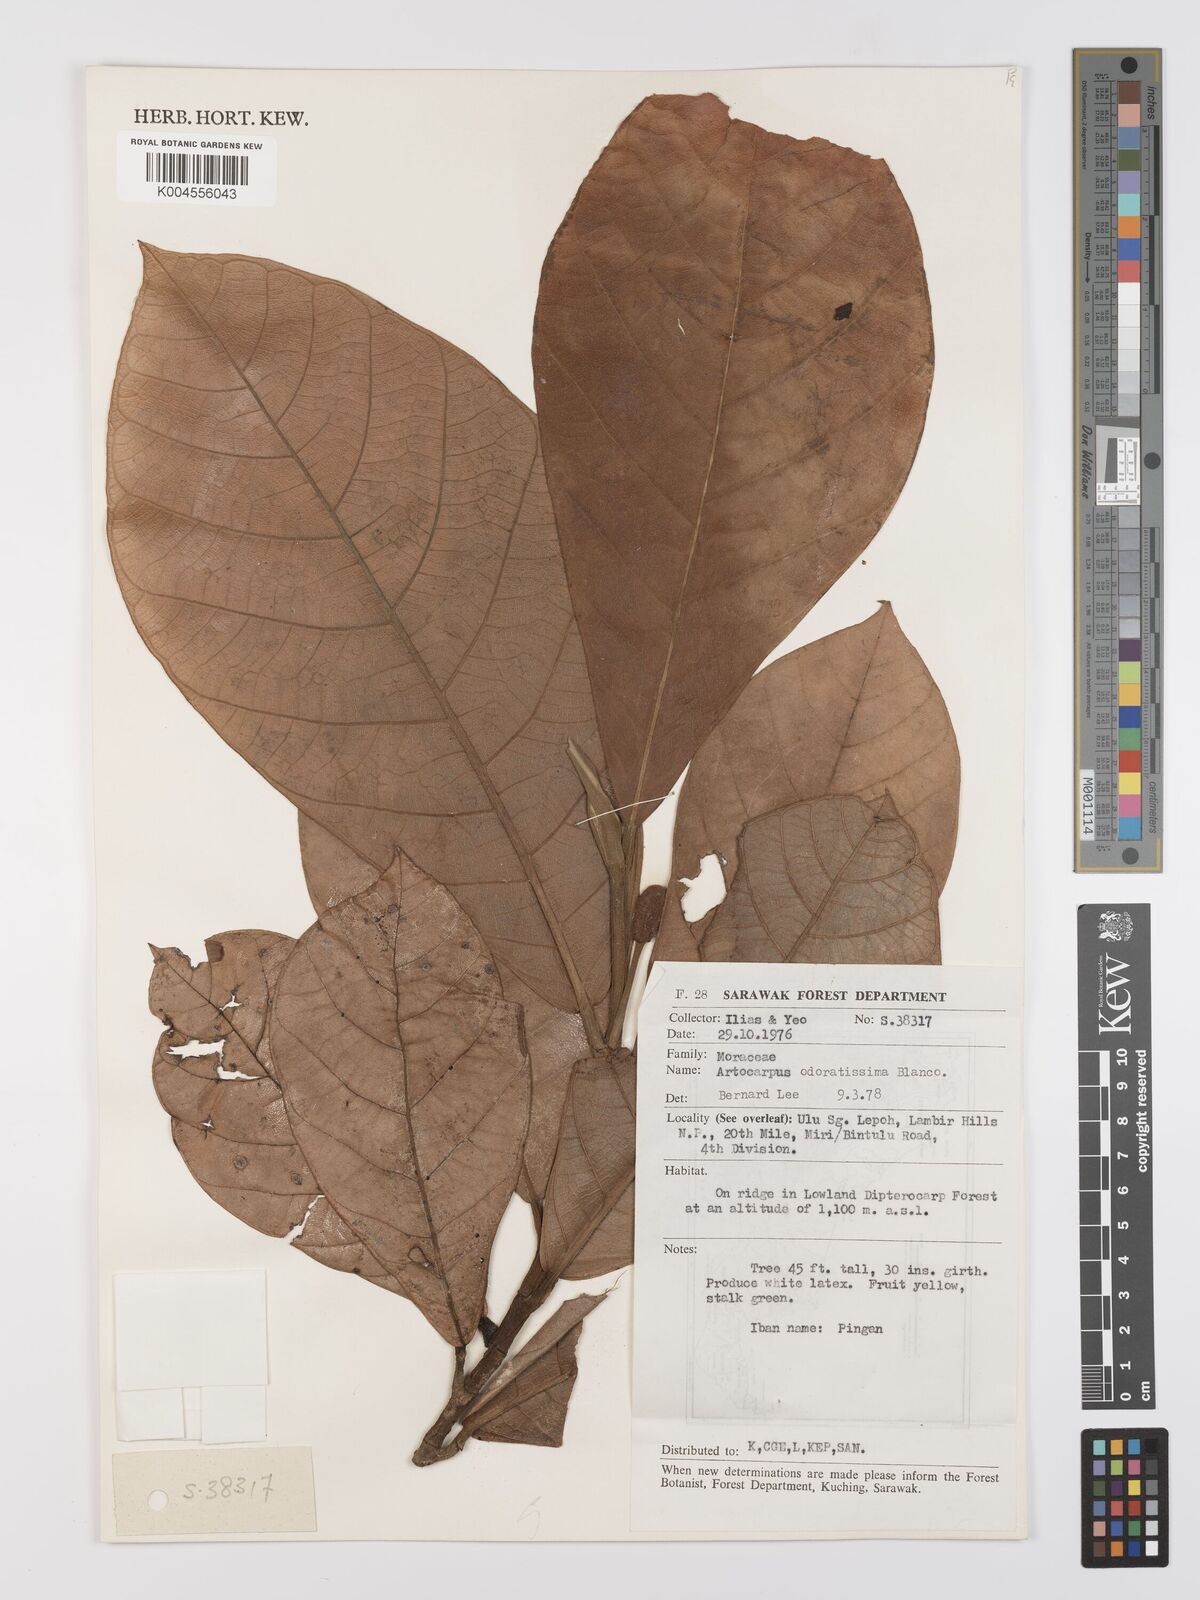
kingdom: Plantae
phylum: Tracheophyta
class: Magnoliopsida
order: Rosales
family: Moraceae
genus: Artocarpus
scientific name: Artocarpus odoratissimus
